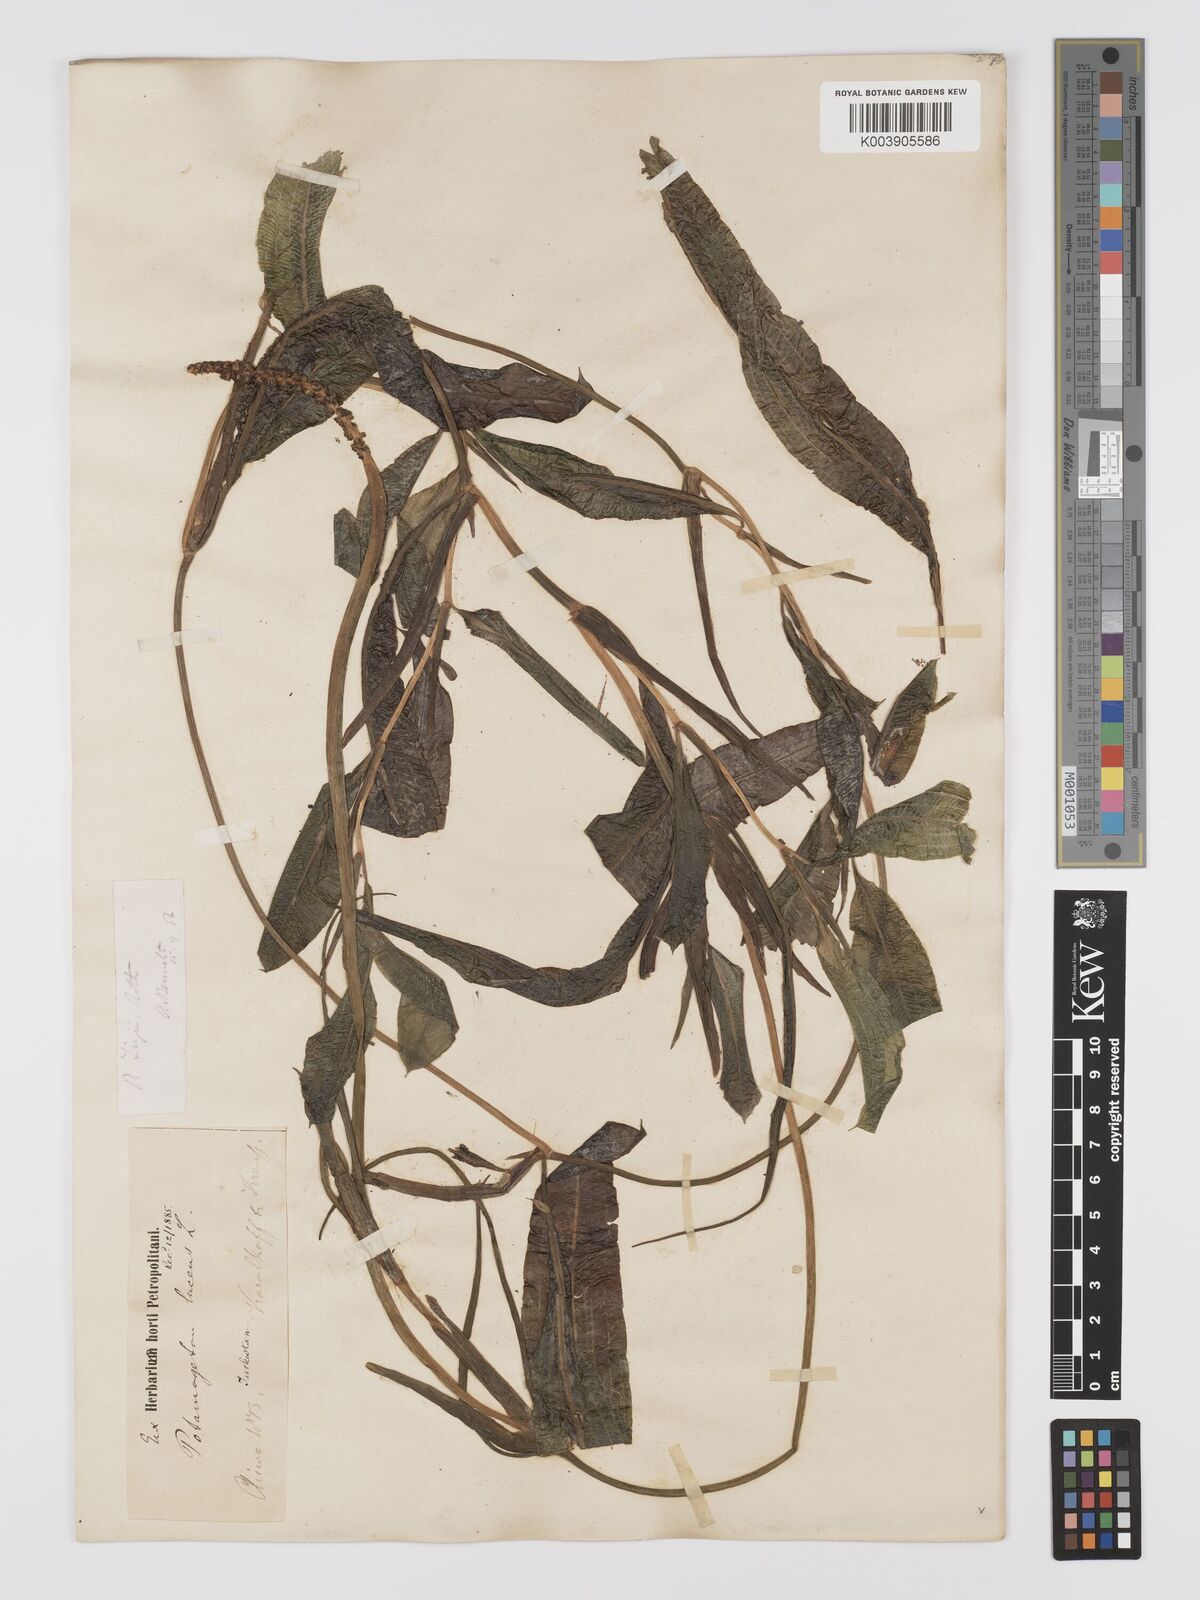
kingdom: Plantae
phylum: Tracheophyta
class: Liliopsida
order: Alismatales
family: Potamogetonaceae
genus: Potamogeton
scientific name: Potamogeton lucens
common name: Shining pondweed
